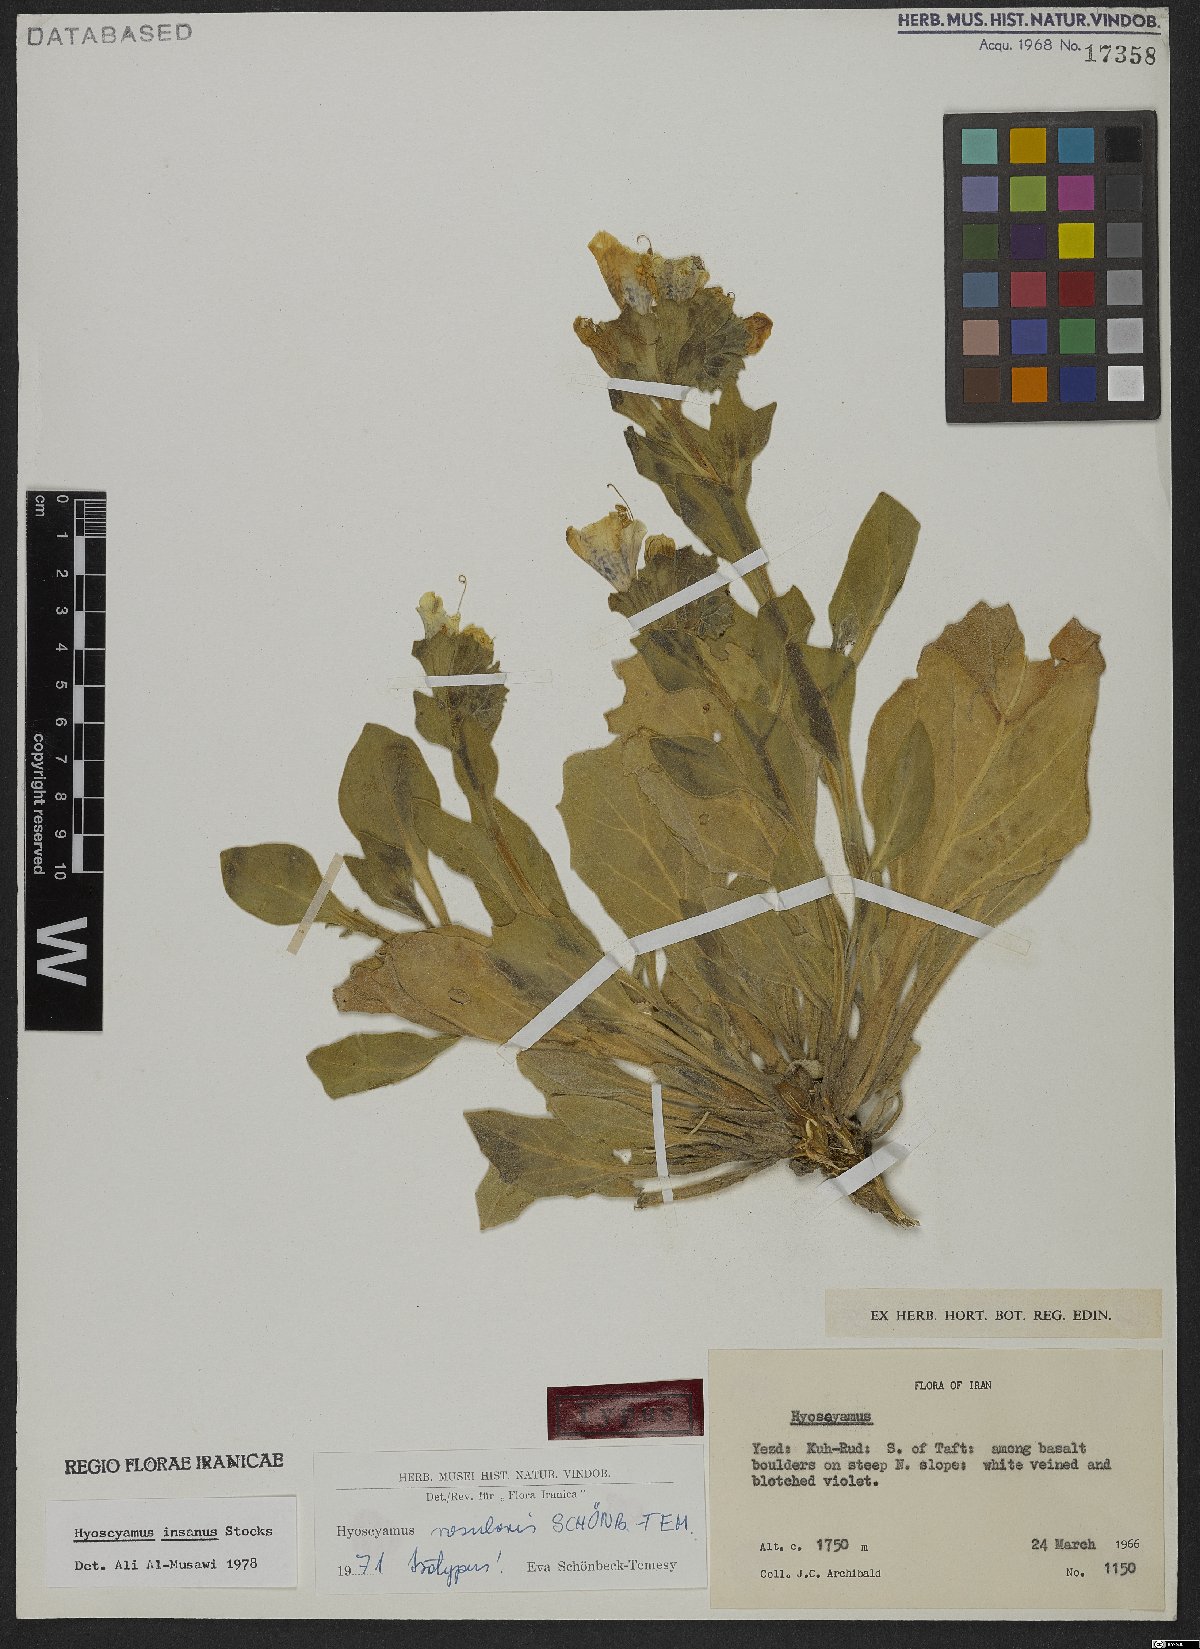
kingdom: Plantae
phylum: Tracheophyta
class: Magnoliopsida
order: Solanales
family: Solanaceae
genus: Hyoscyamus
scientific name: Hyoscyamus rosularis
